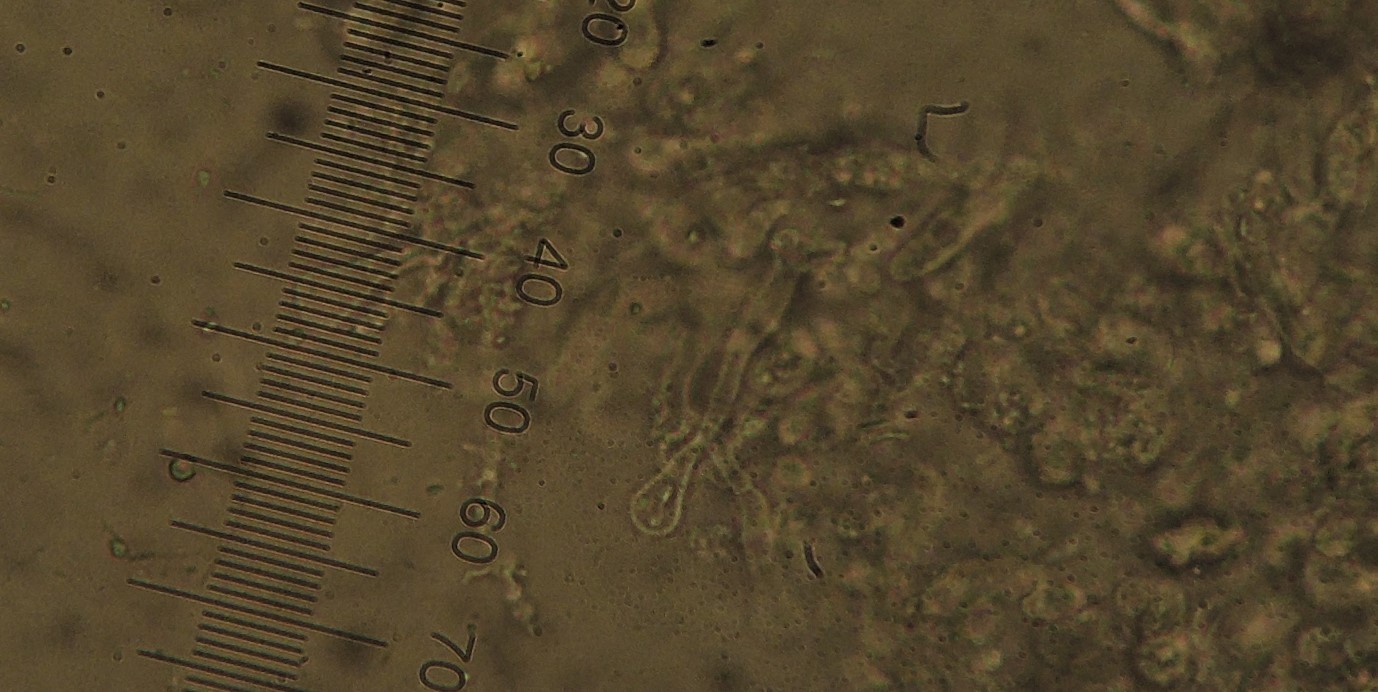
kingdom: Fungi
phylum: Basidiomycota
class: Agaricomycetes
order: Agaricales
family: Marasmiaceae
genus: Campanella
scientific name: Campanella caesia
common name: bruskøre
